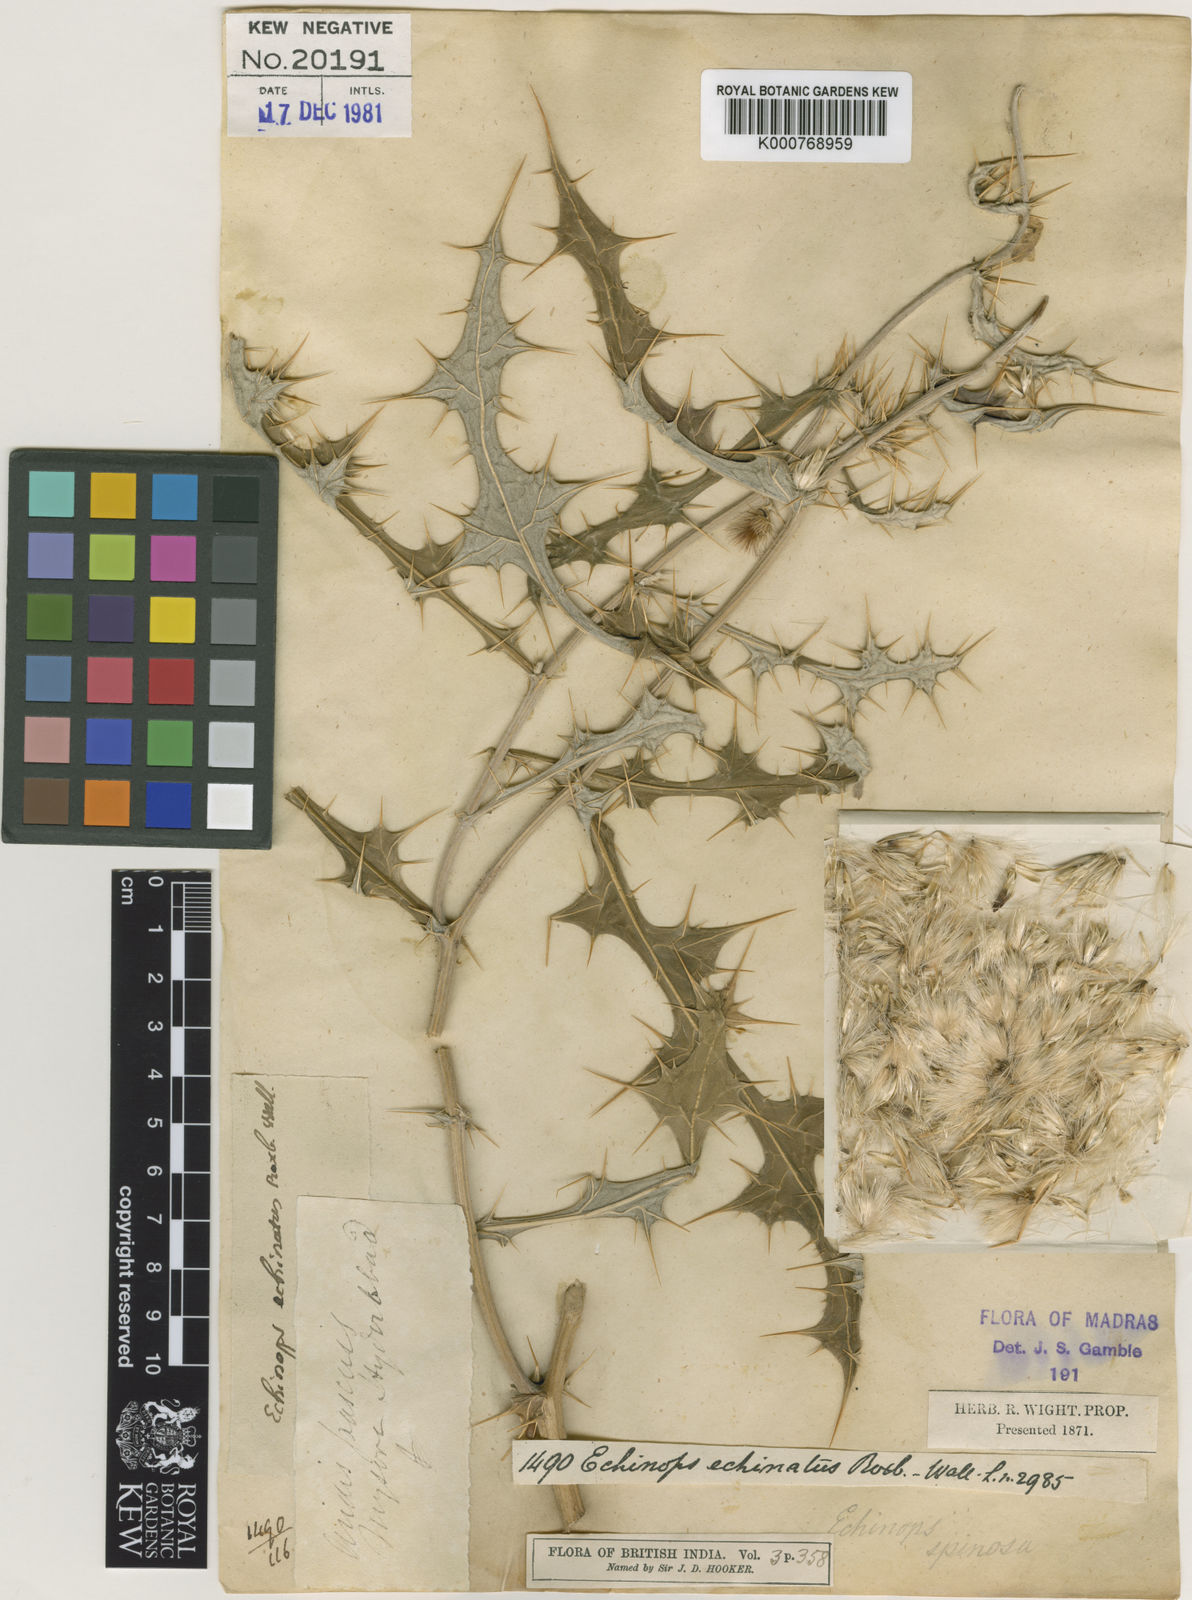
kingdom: Plantae
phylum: Tracheophyta
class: Magnoliopsida
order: Asterales
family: Asteraceae
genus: Echinops
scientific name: Echinops echinatus
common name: Indian globe thistle
